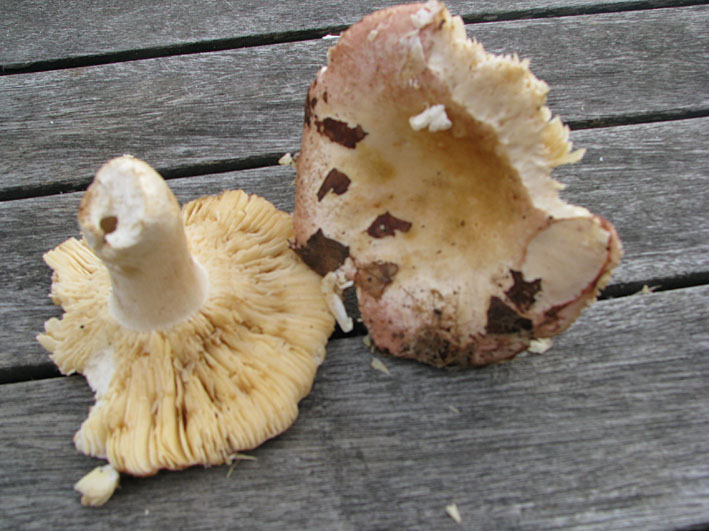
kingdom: Fungi
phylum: Basidiomycota
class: Agaricomycetes
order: Russulales
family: Russulaceae
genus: Russula
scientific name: Russula veternosa
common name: blødkødet skørhat
